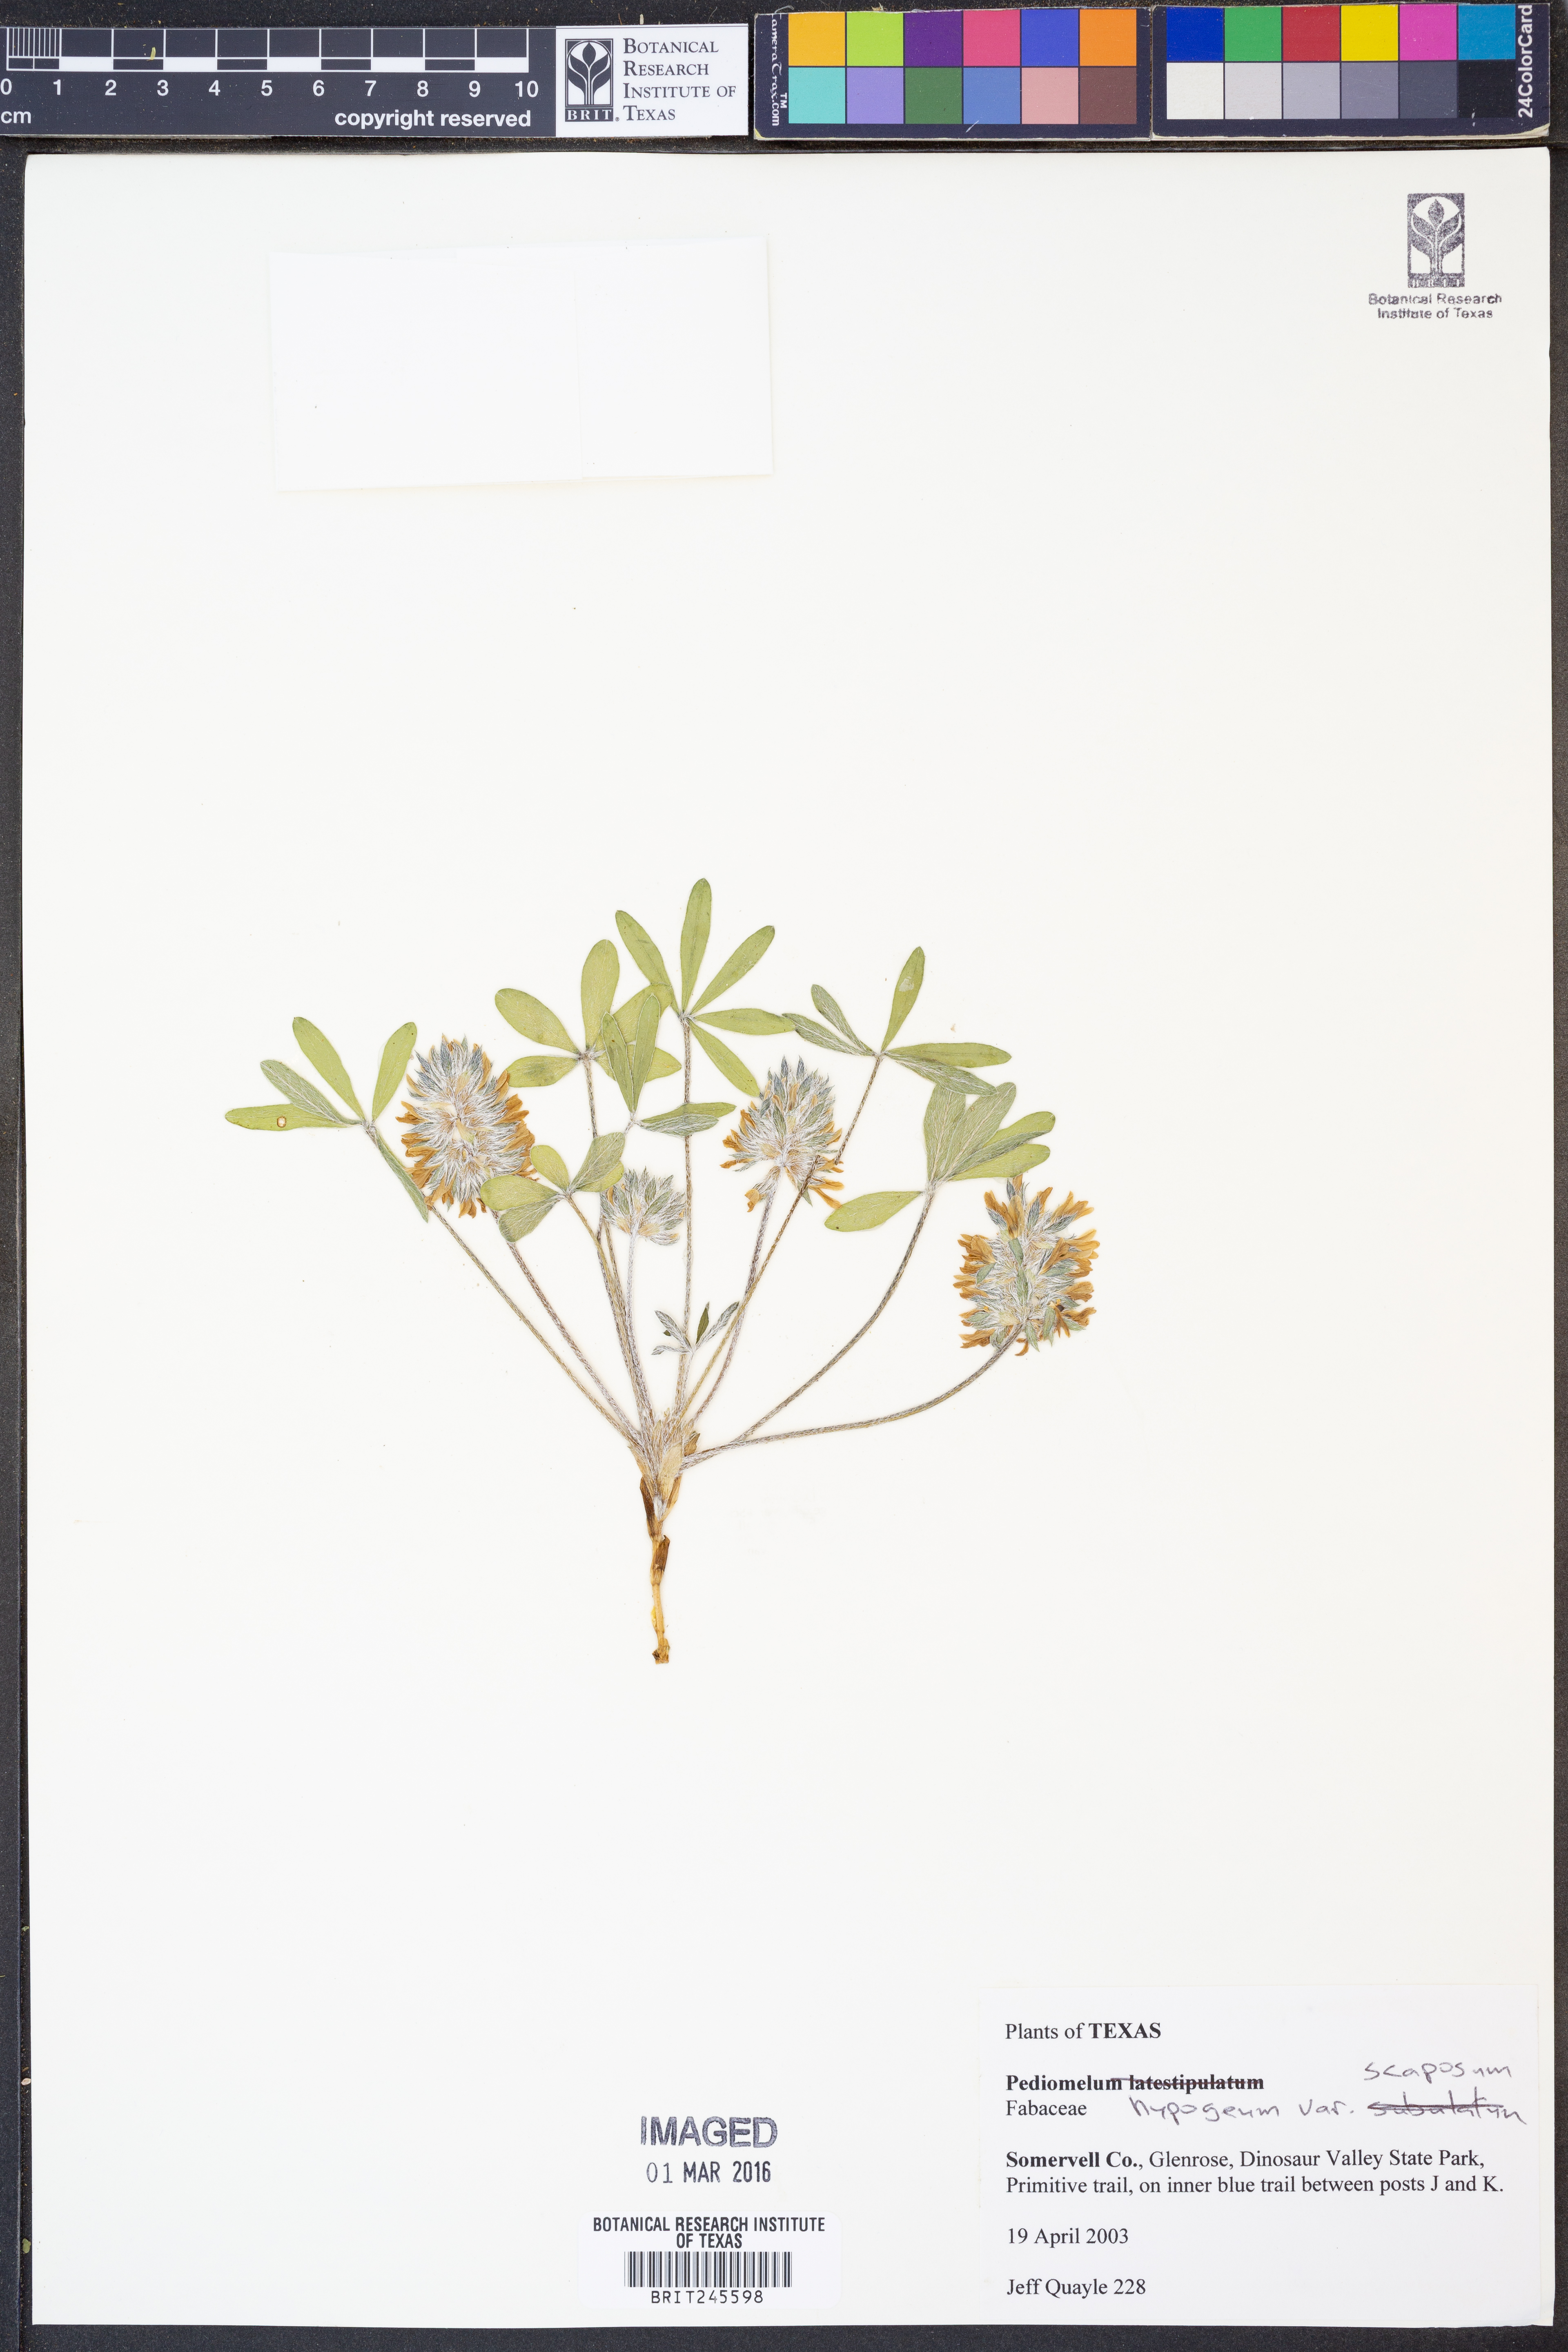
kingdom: Plantae
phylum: Tracheophyta
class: Magnoliopsida
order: Fabales
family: Fabaceae
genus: Pediomelum
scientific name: Pediomelum hypogaeum
